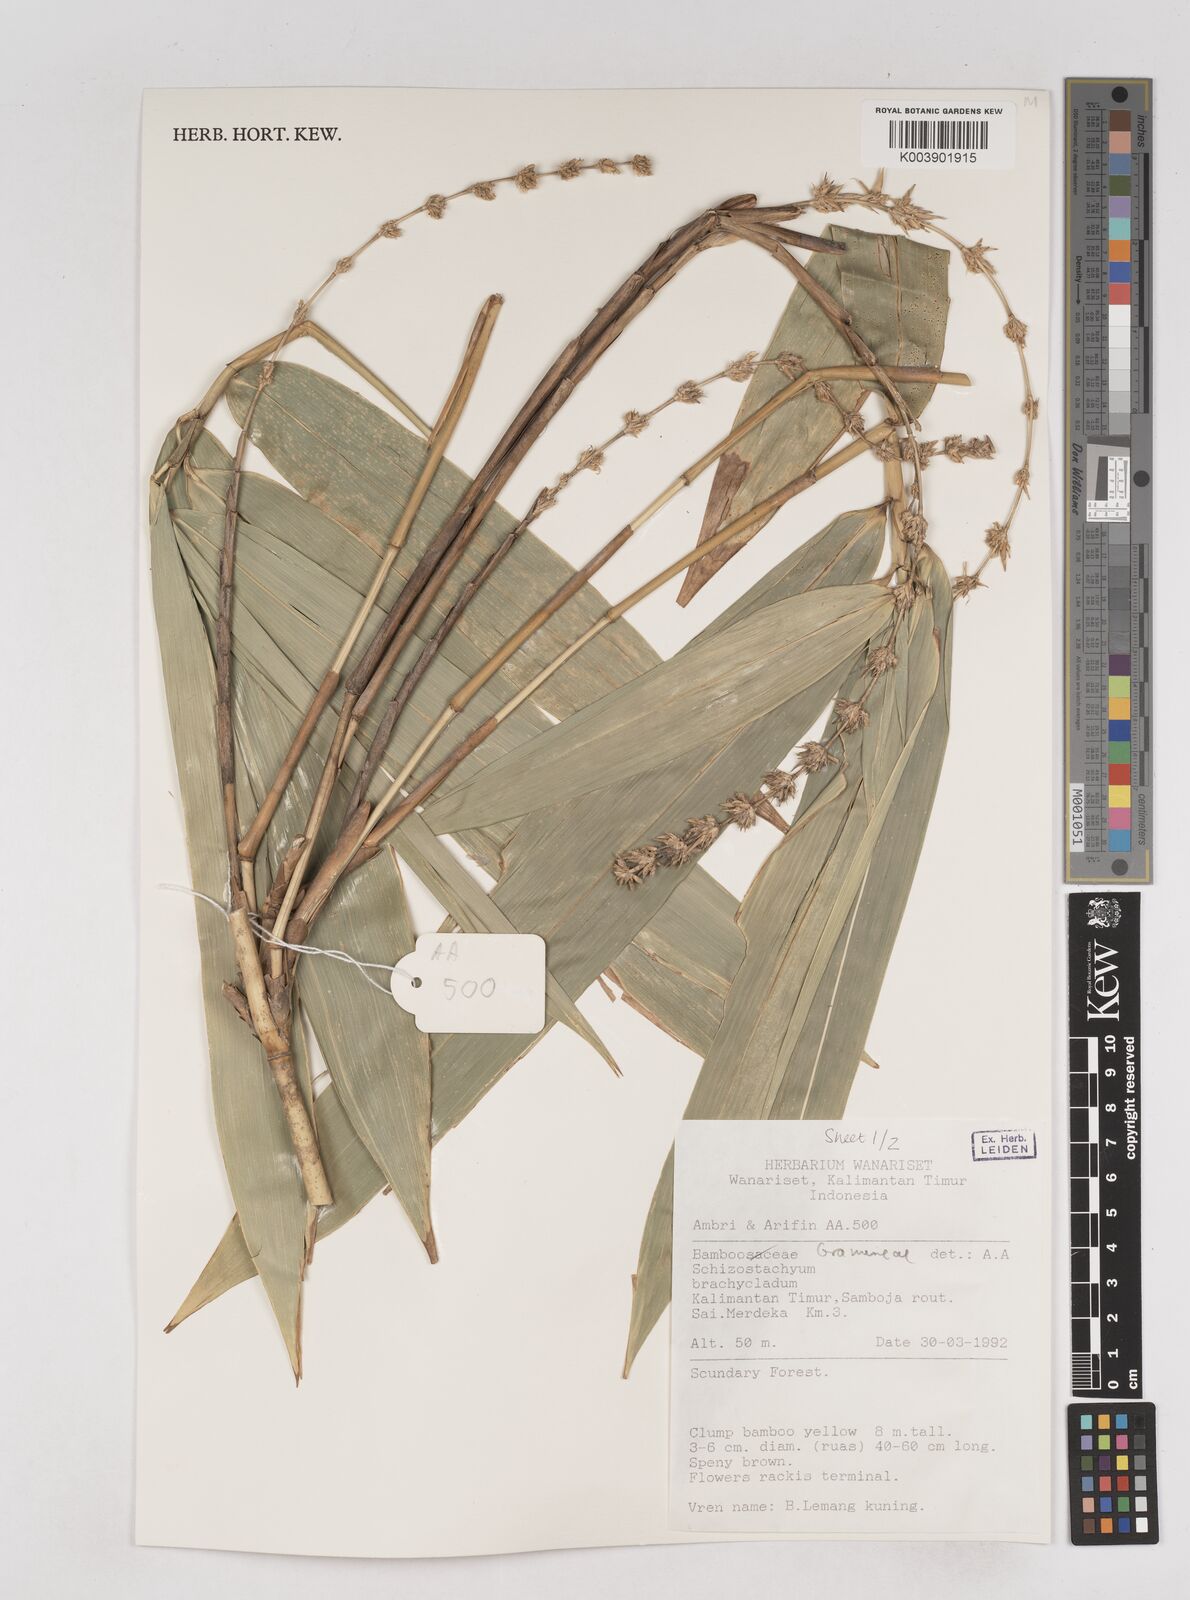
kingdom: Plantae
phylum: Tracheophyta
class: Liliopsida
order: Poales
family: Poaceae
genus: Schizostachyum
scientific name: Schizostachyum brachycladum
